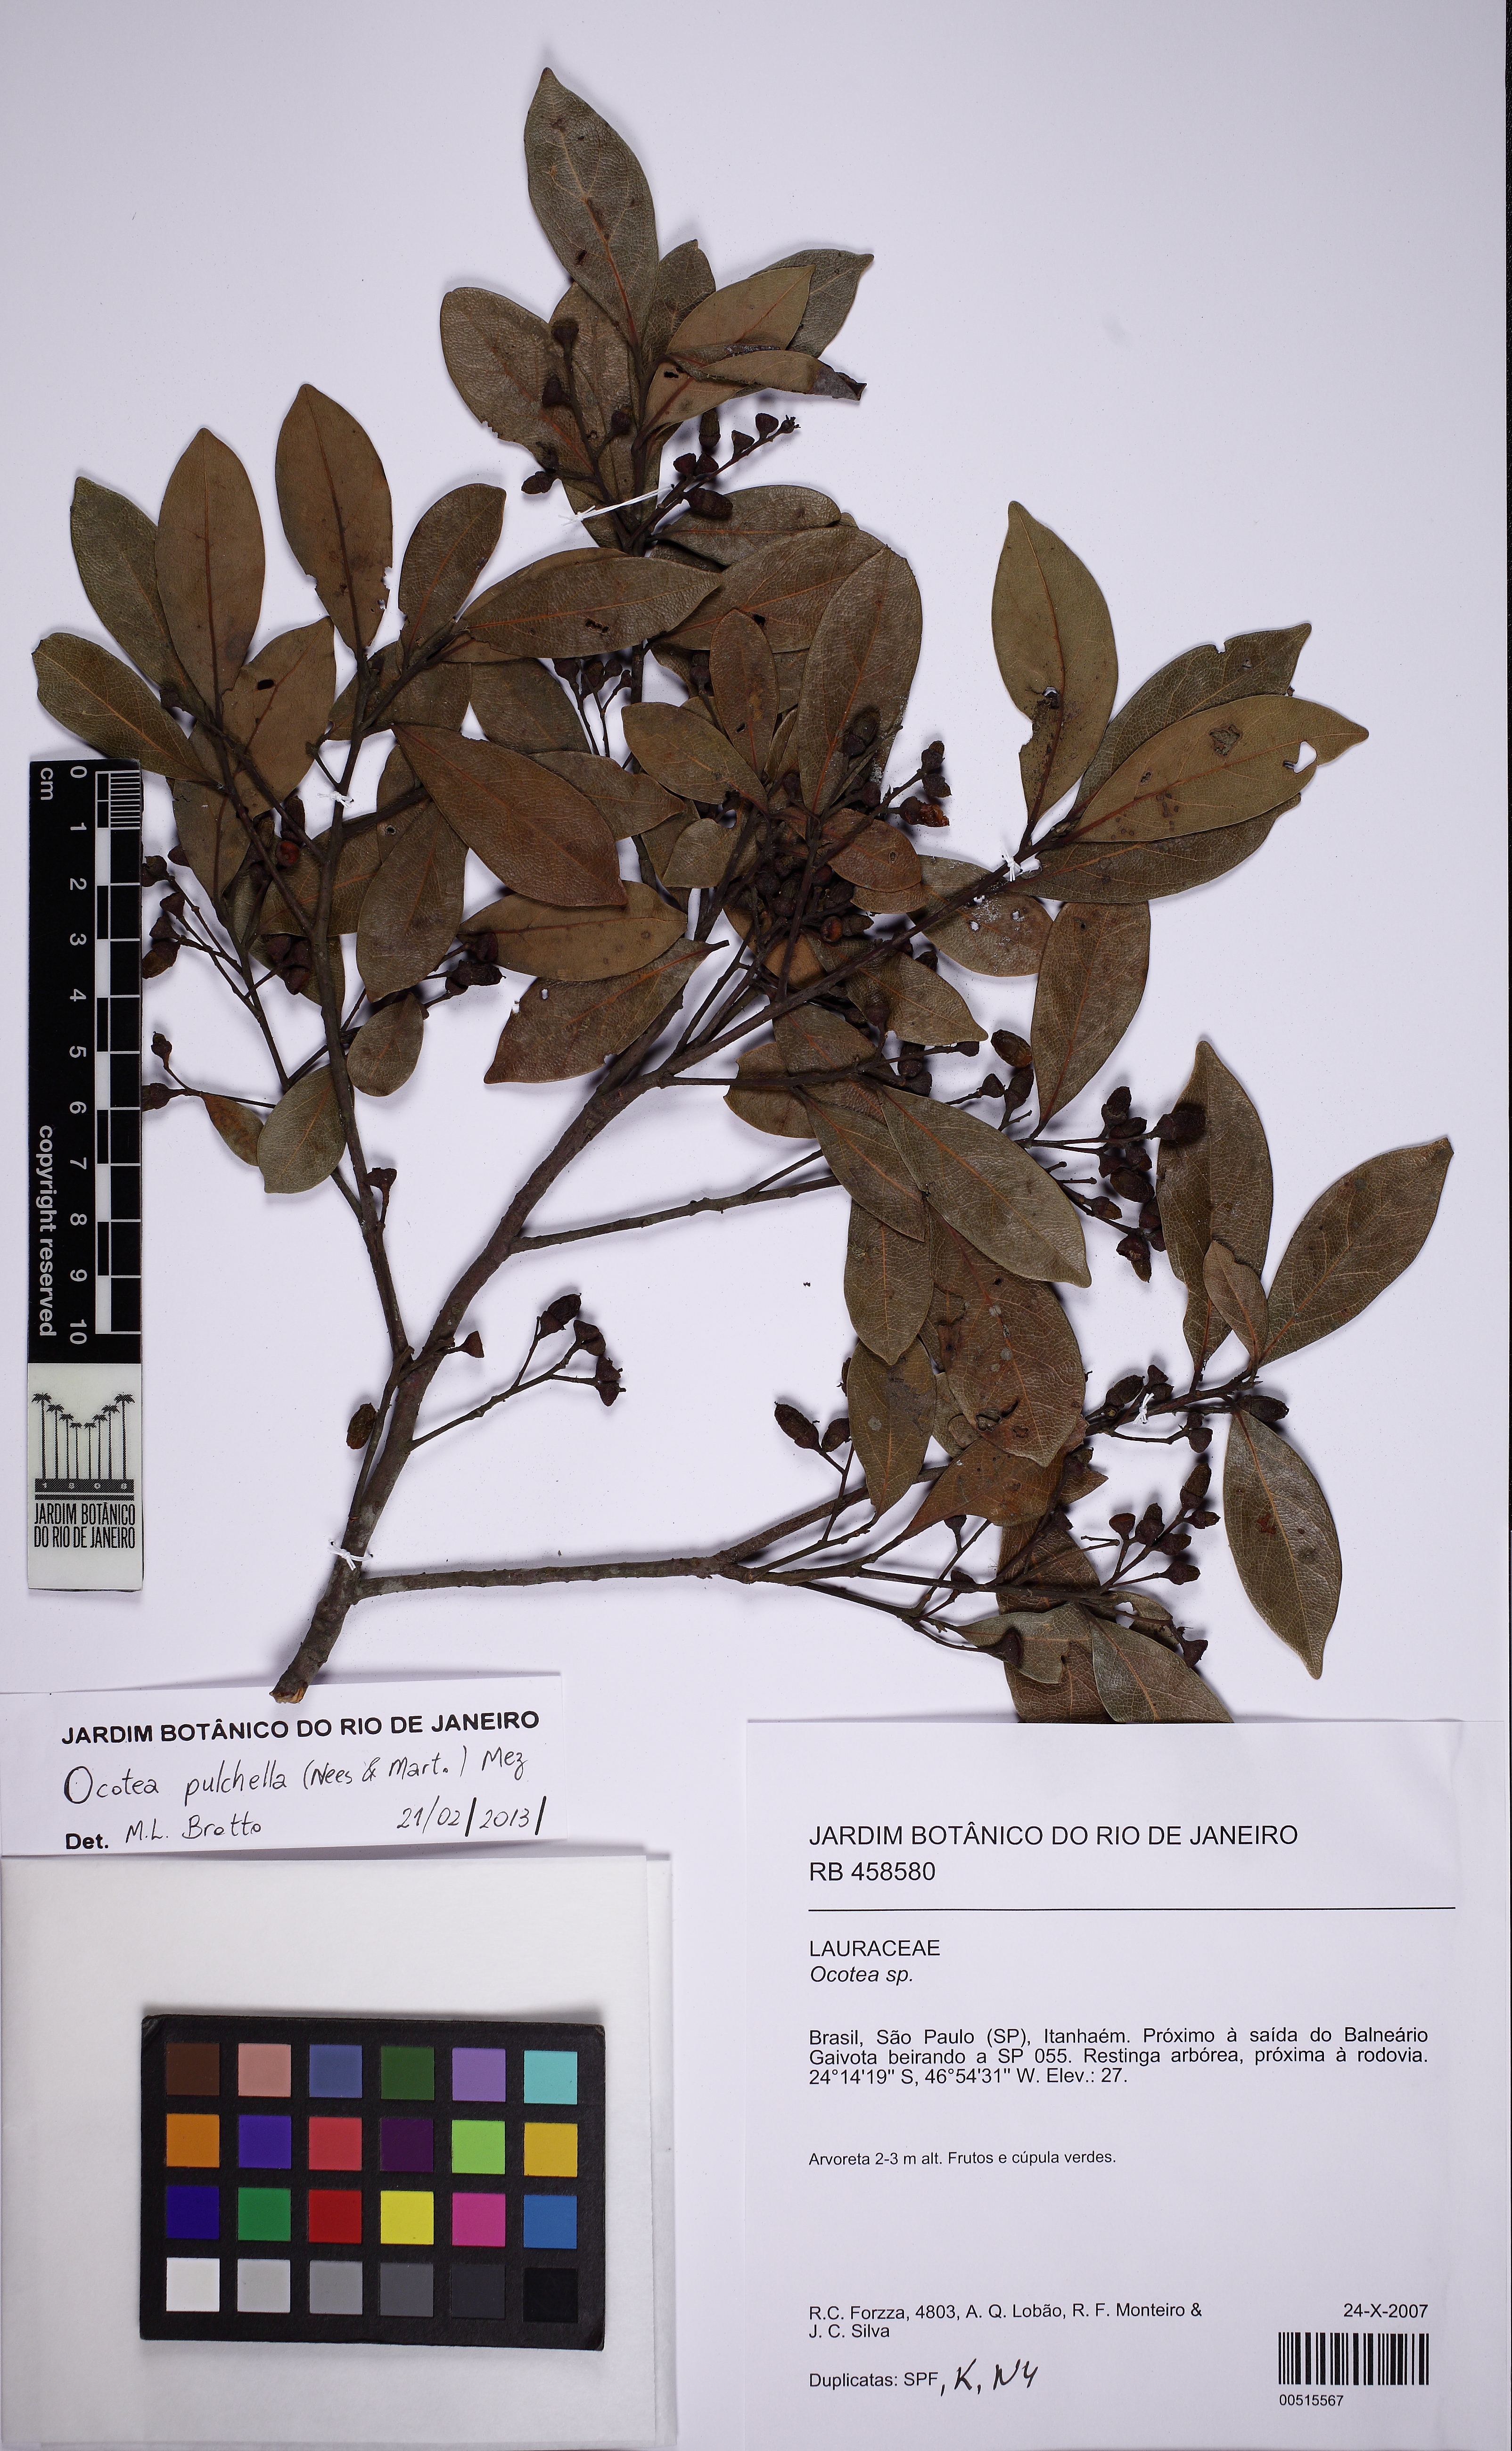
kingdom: Plantae
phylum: Tracheophyta
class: Magnoliopsida
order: Laurales
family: Lauraceae
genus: Mespilodaphne
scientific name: Mespilodaphne pulchella
